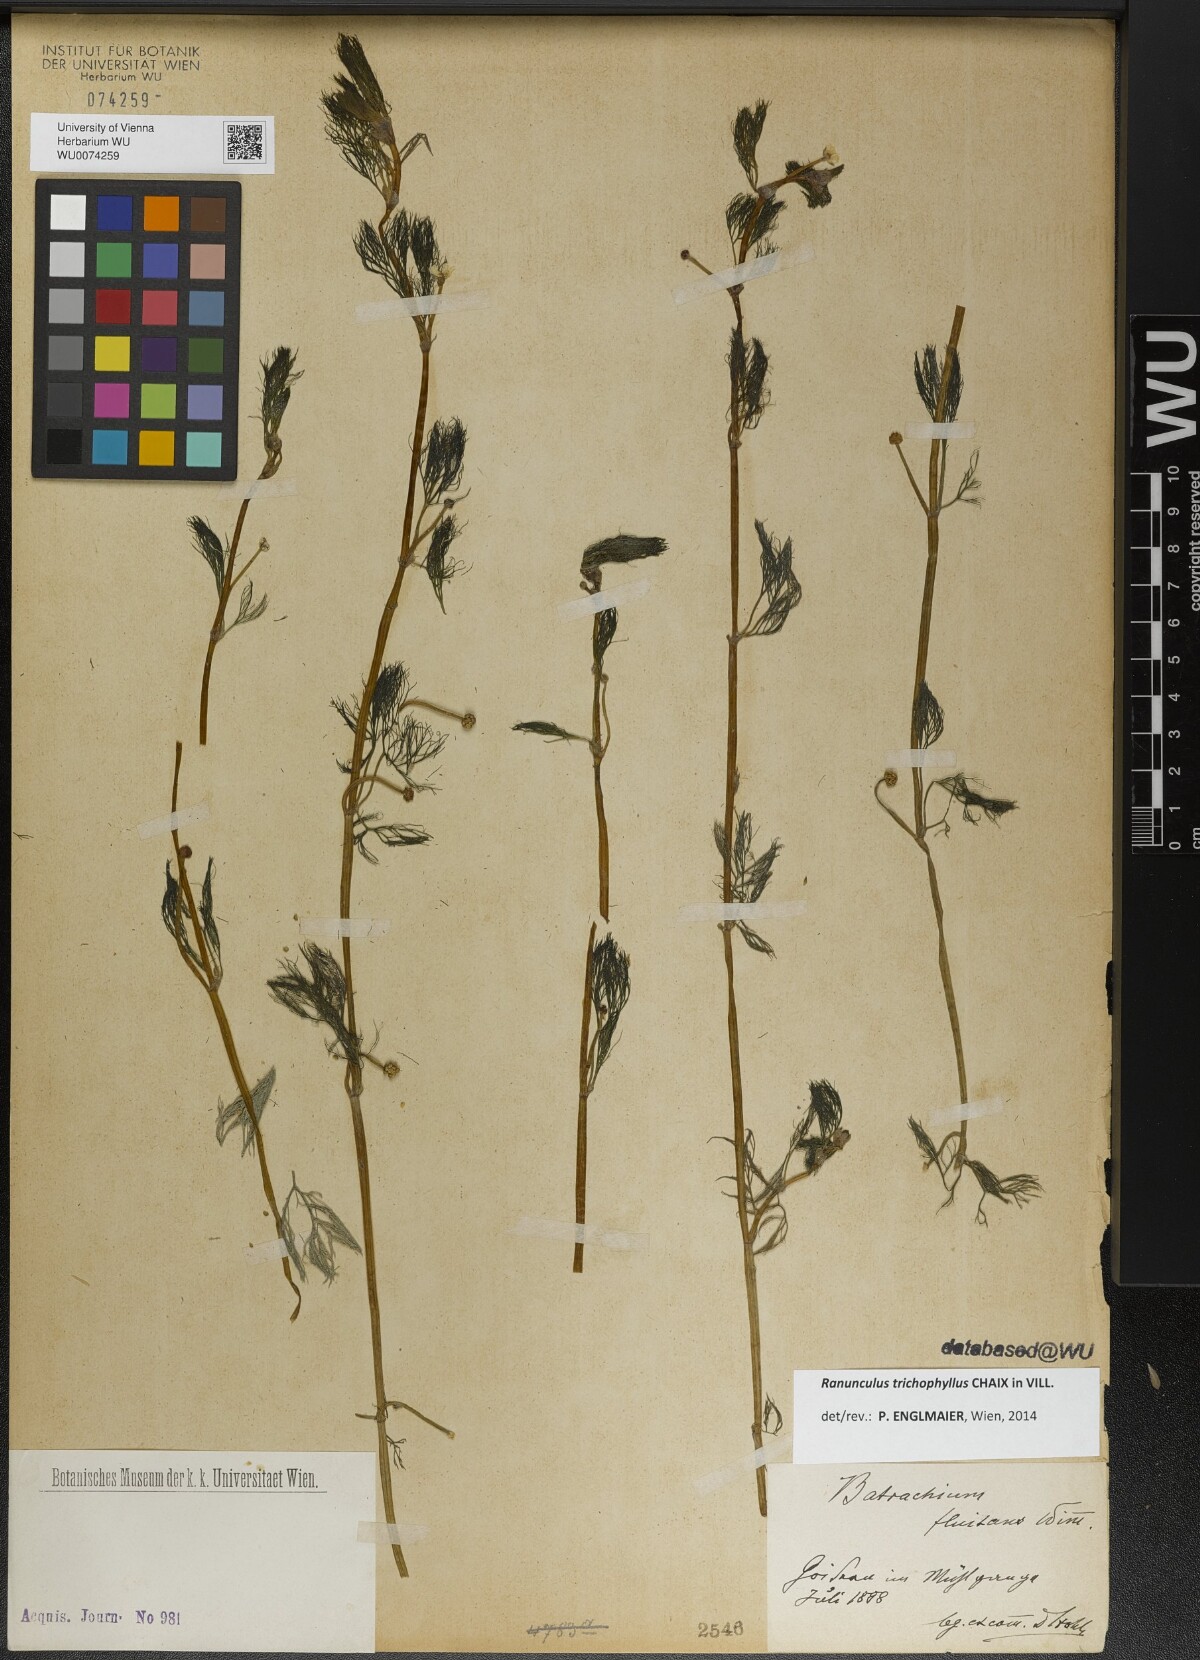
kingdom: Plantae
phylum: Tracheophyta
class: Magnoliopsida
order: Ranunculales
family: Ranunculaceae
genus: Ranunculus
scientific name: Ranunculus trichophyllus
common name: Thread-leaved water-crowfoot
